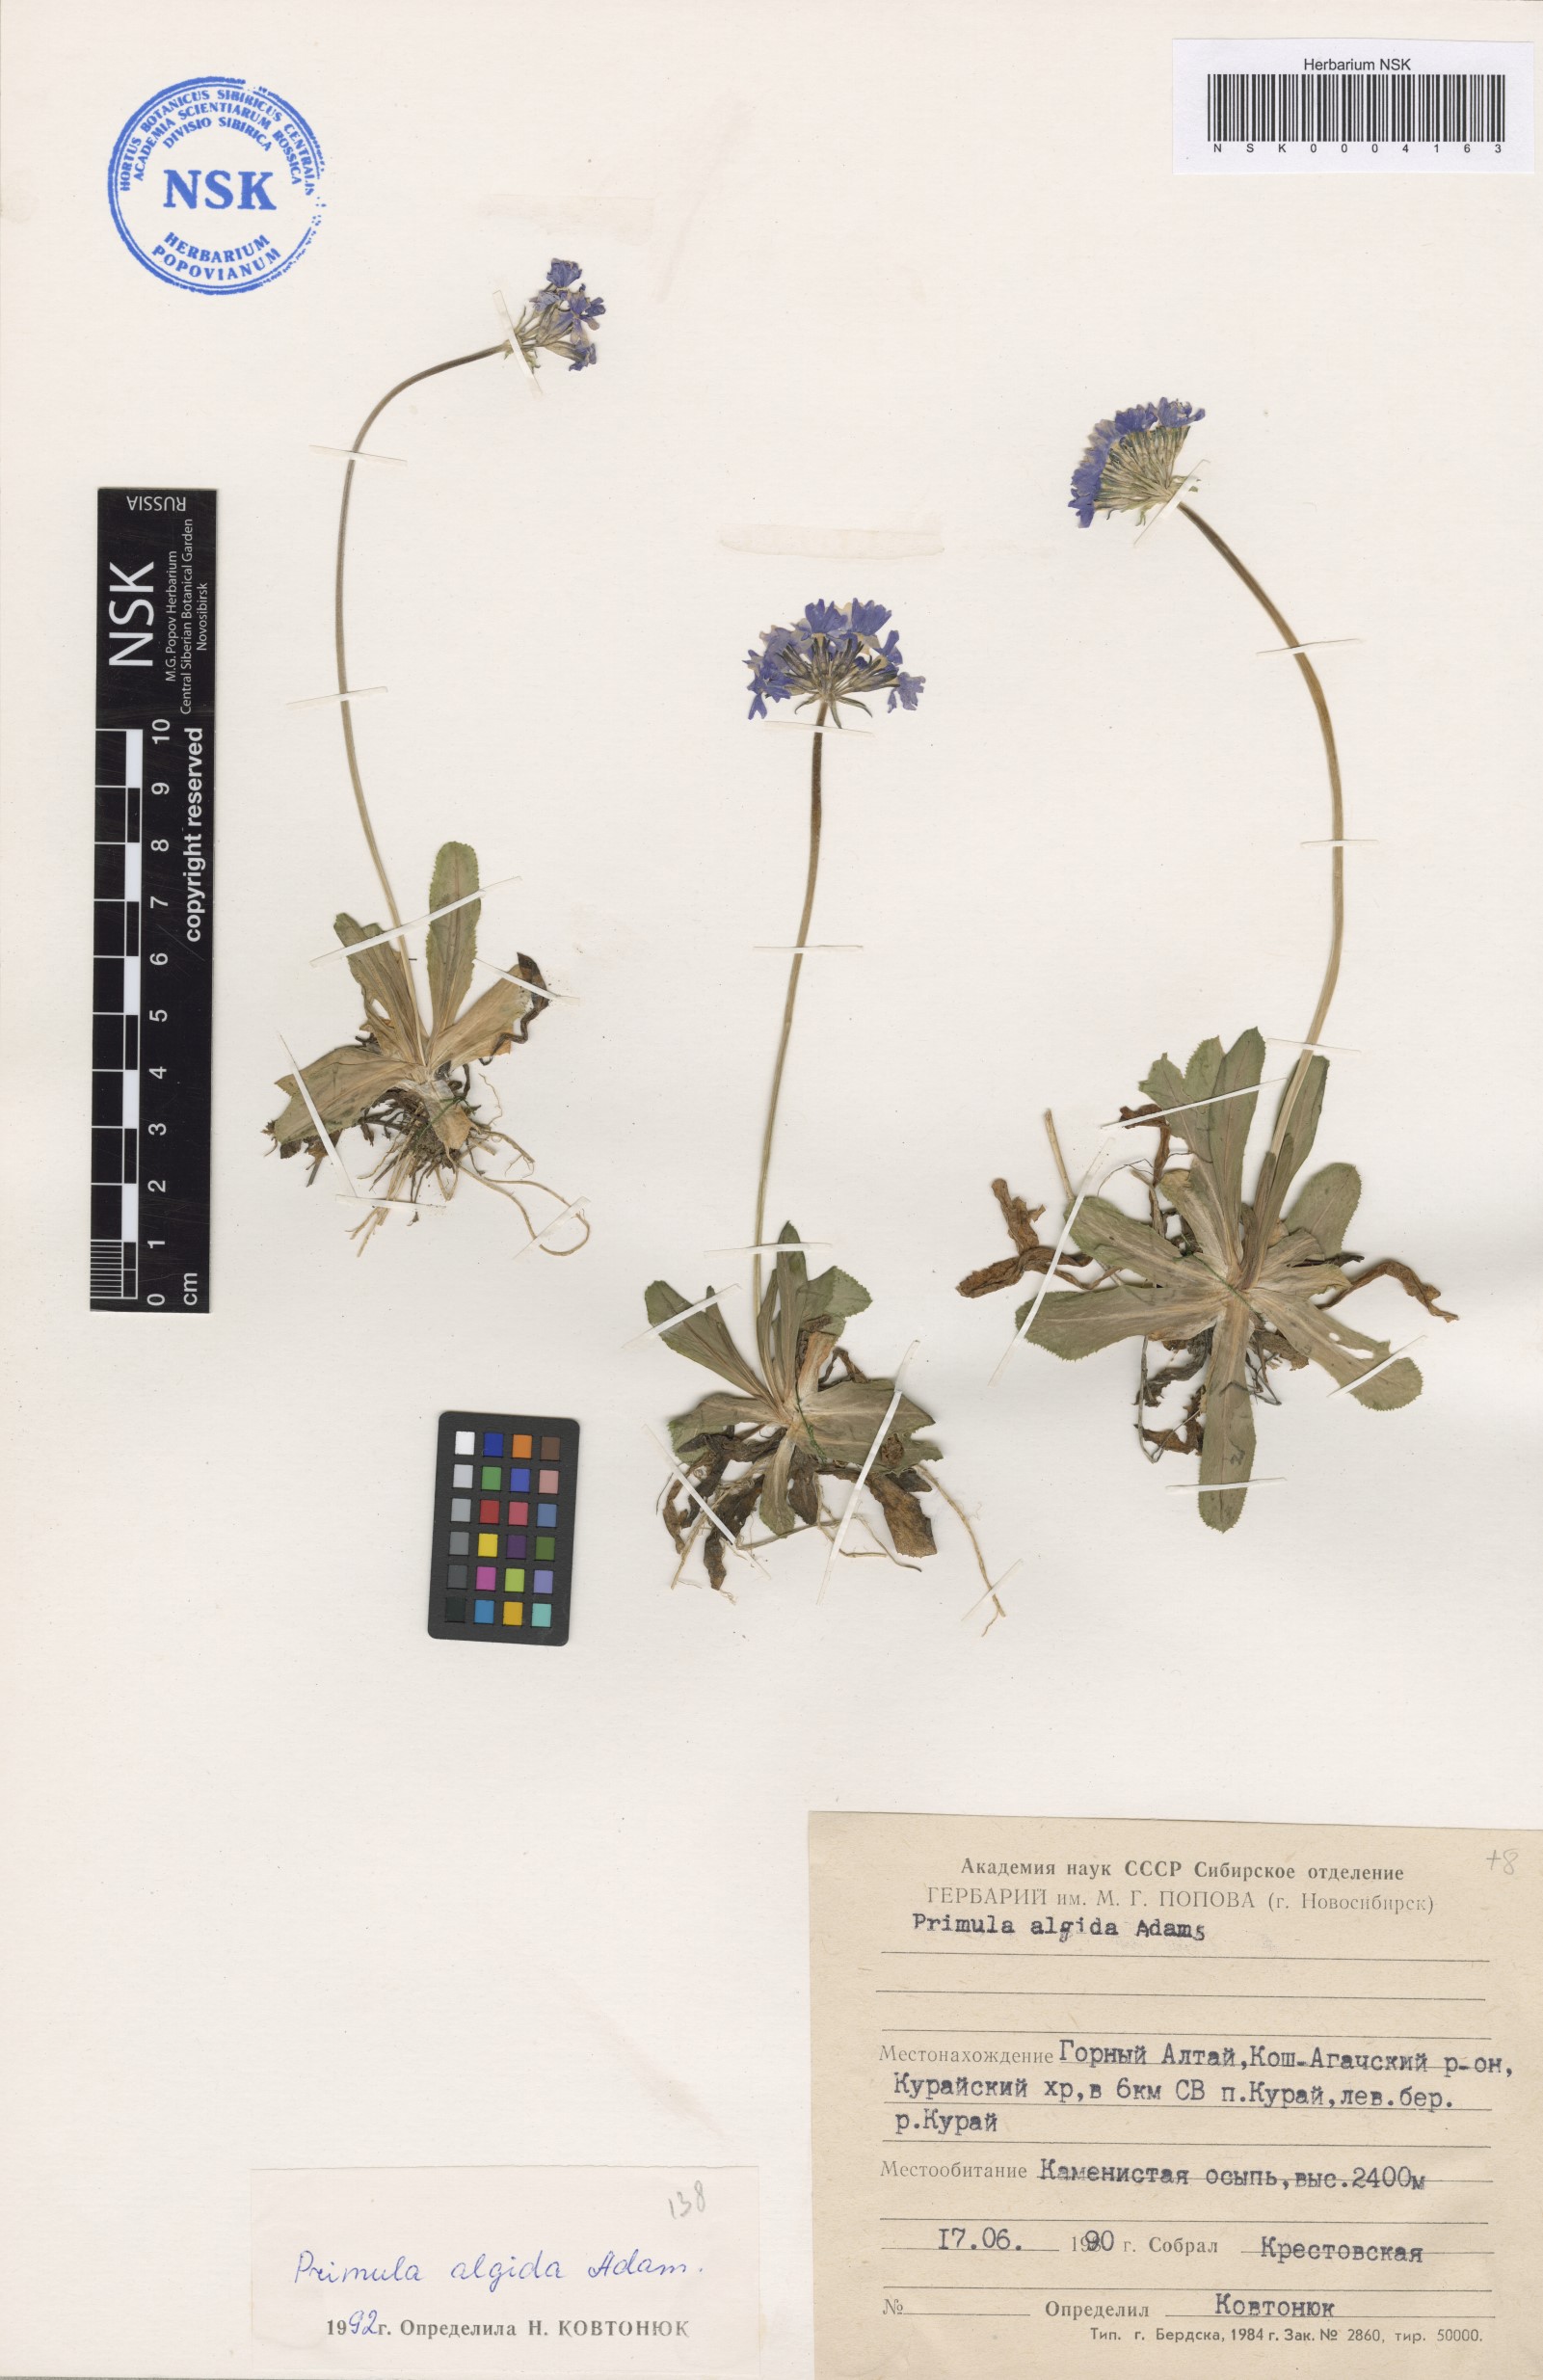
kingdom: Plantae
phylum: Tracheophyta
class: Magnoliopsida
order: Ericales
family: Primulaceae
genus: Primula
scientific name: Primula algida
